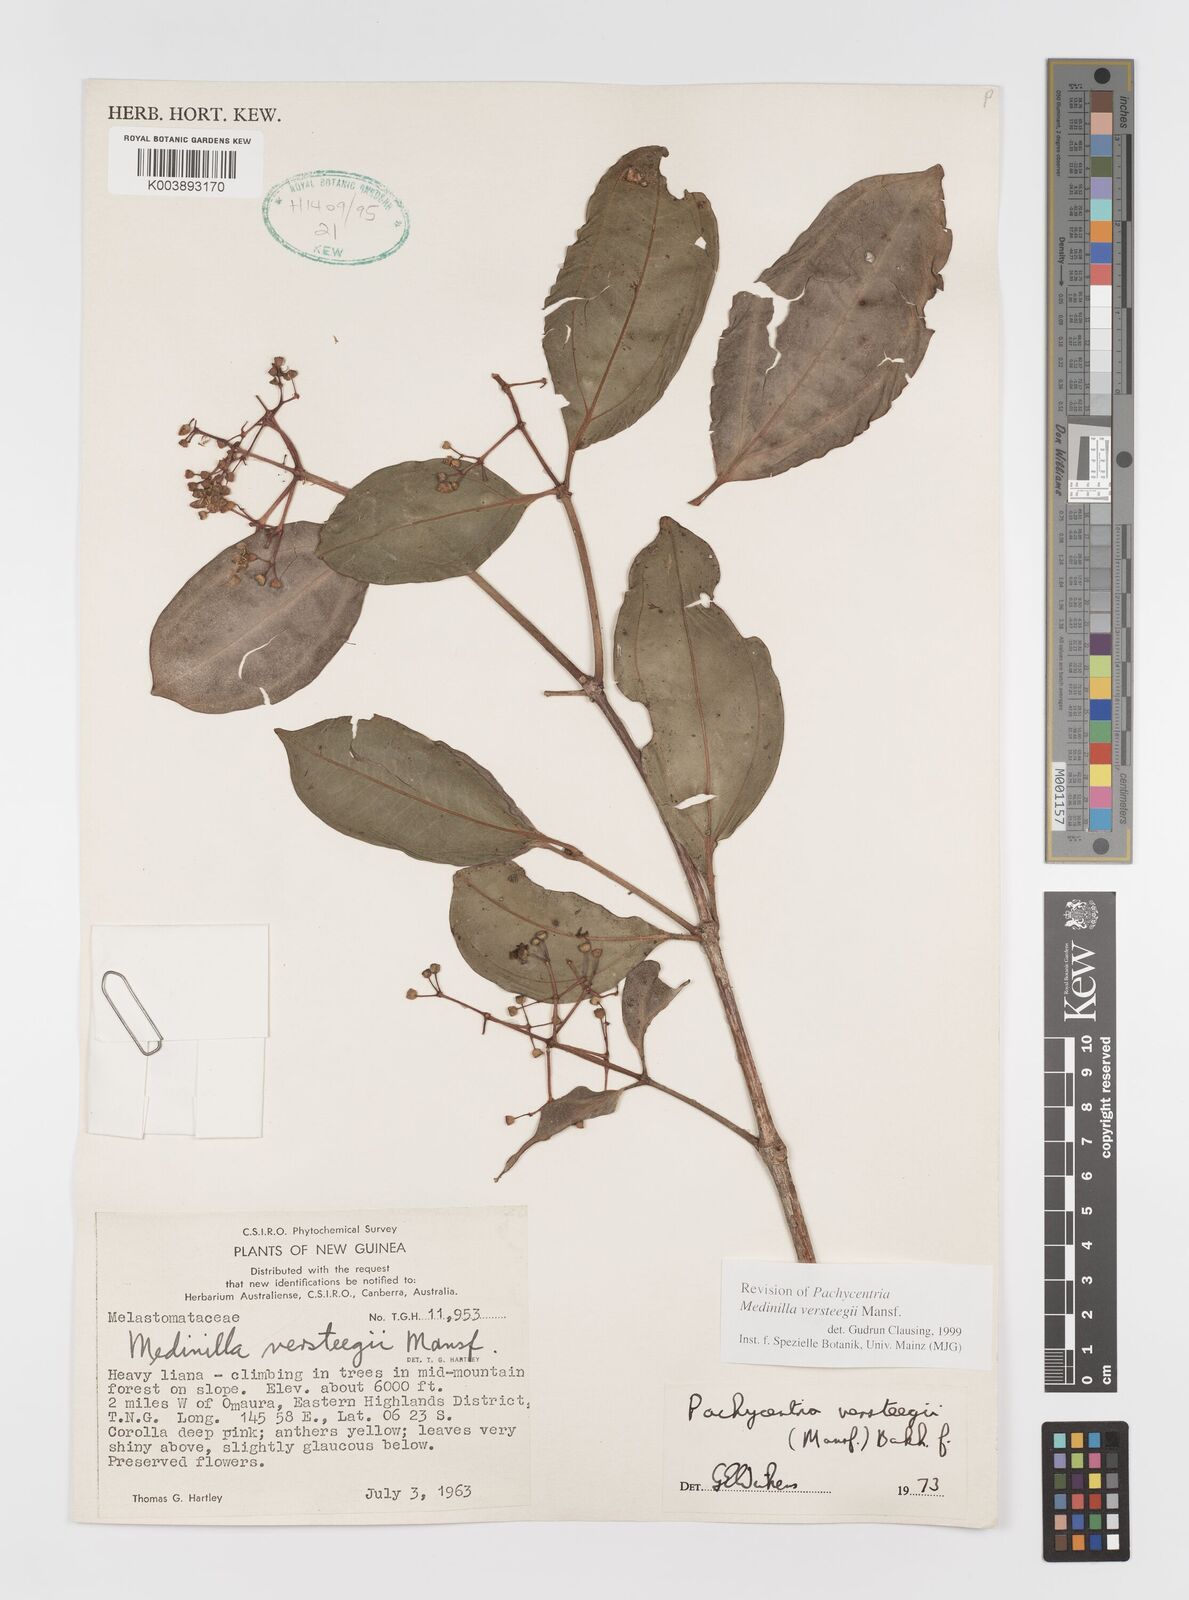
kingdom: Plantae
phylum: Tracheophyta
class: Magnoliopsida
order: Myrtales
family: Melastomataceae
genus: Medinilla
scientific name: Medinilla versteegii
